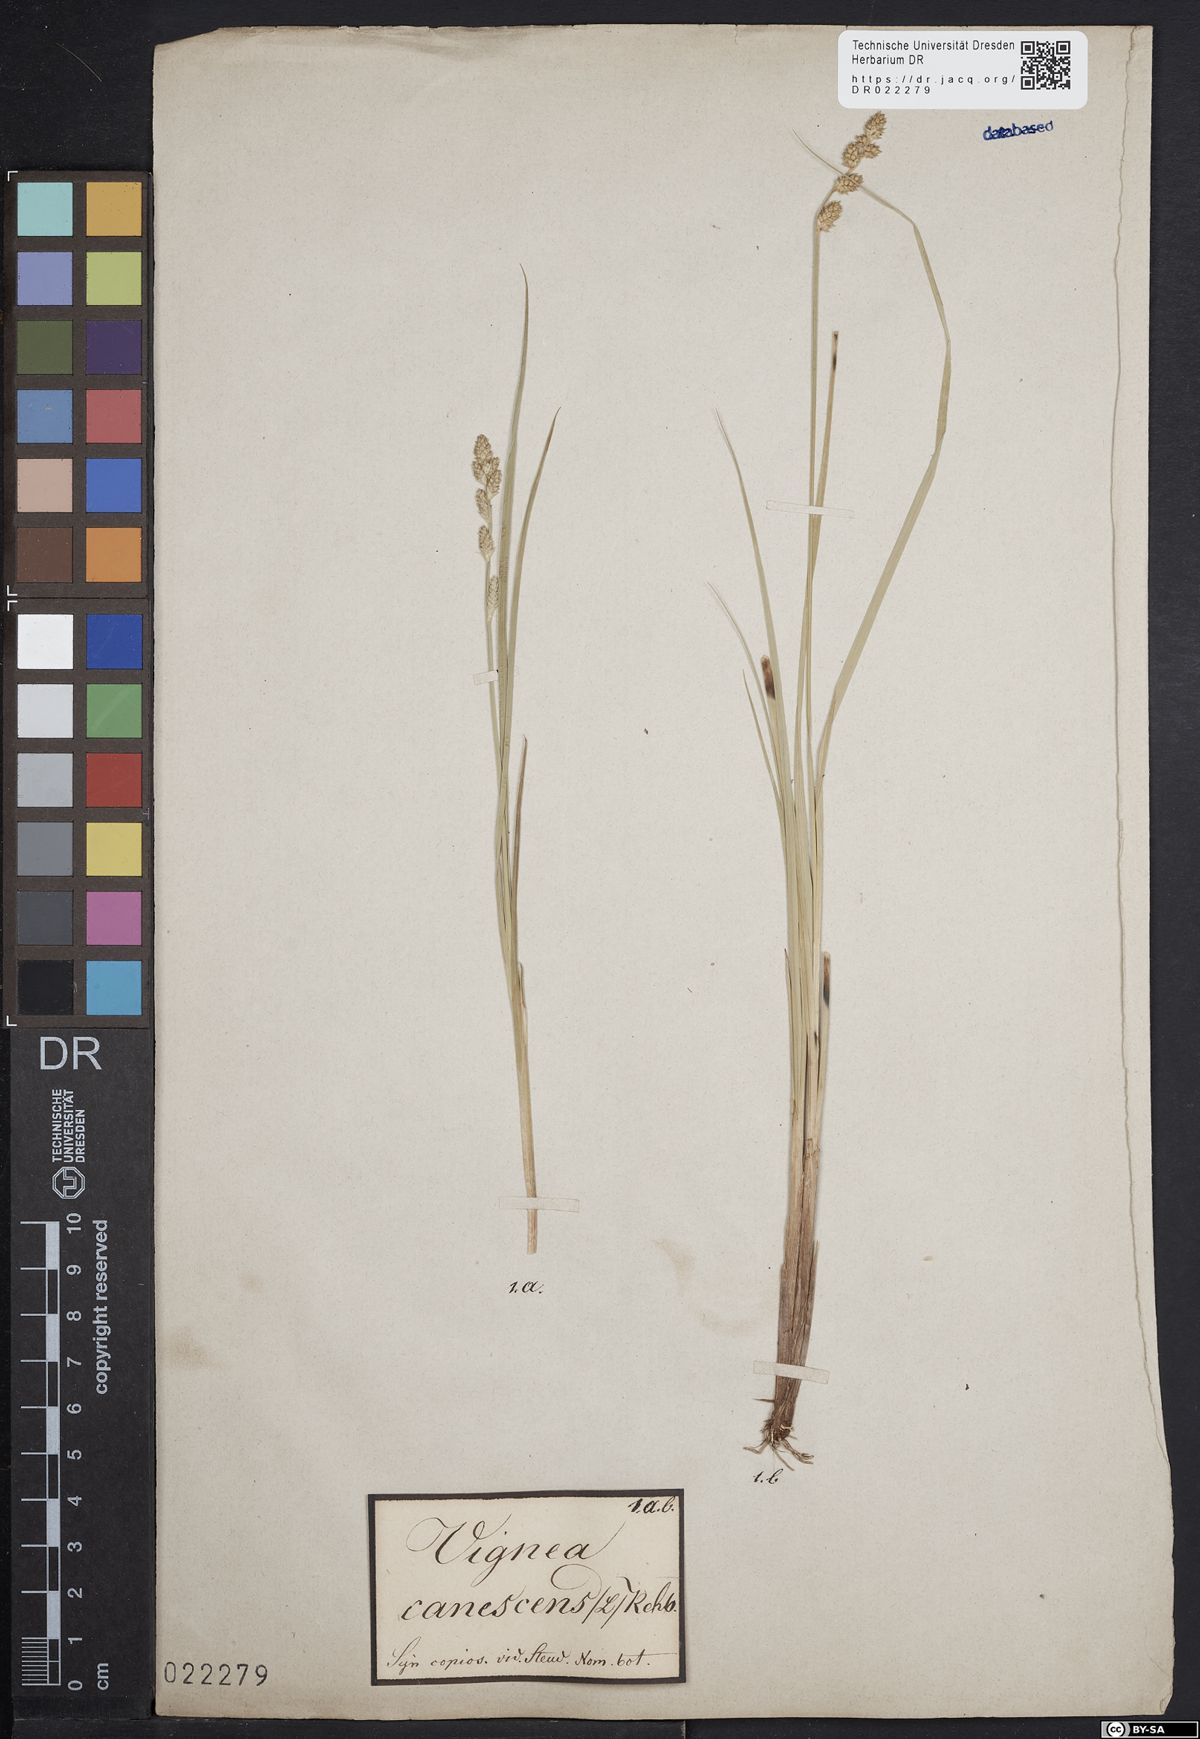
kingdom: Plantae
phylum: Tracheophyta
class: Liliopsida
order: Poales
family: Cyperaceae
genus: Carex
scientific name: Carex canescens
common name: White sedge
